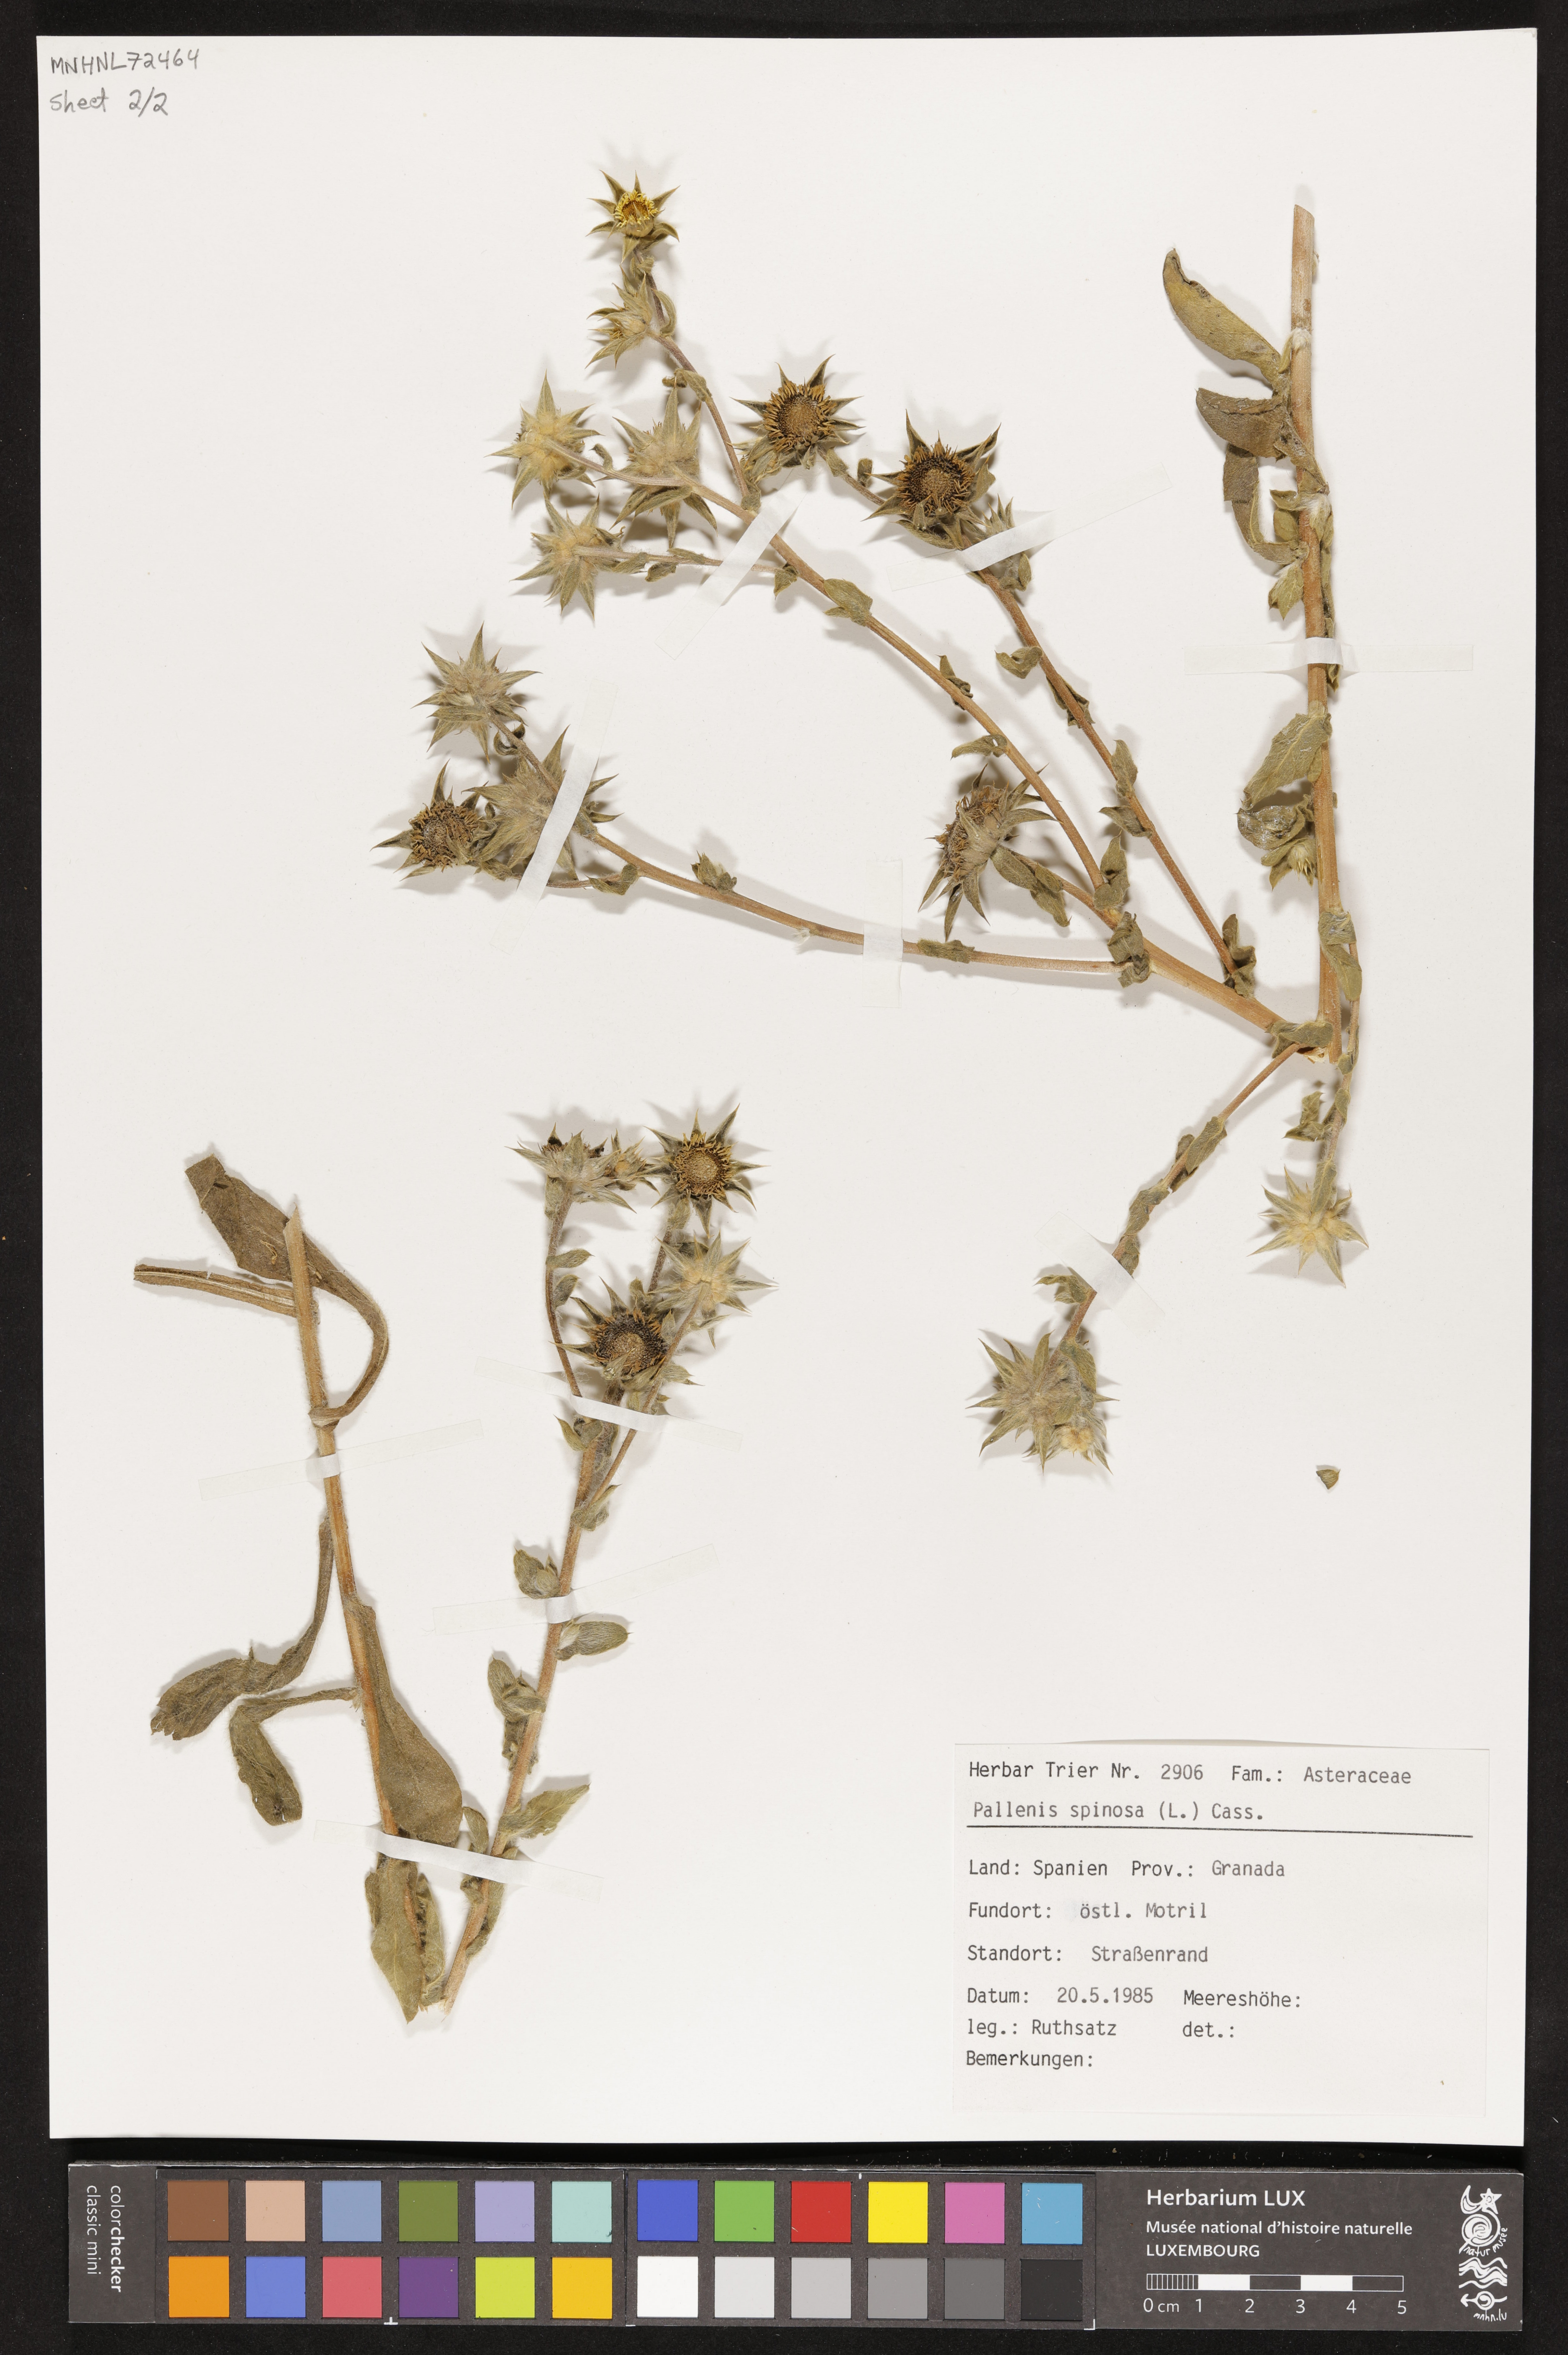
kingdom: Plantae
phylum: Tracheophyta
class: Magnoliopsida
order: Asterales
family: Asteraceae
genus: Pallenis
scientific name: Pallenis spinosa
